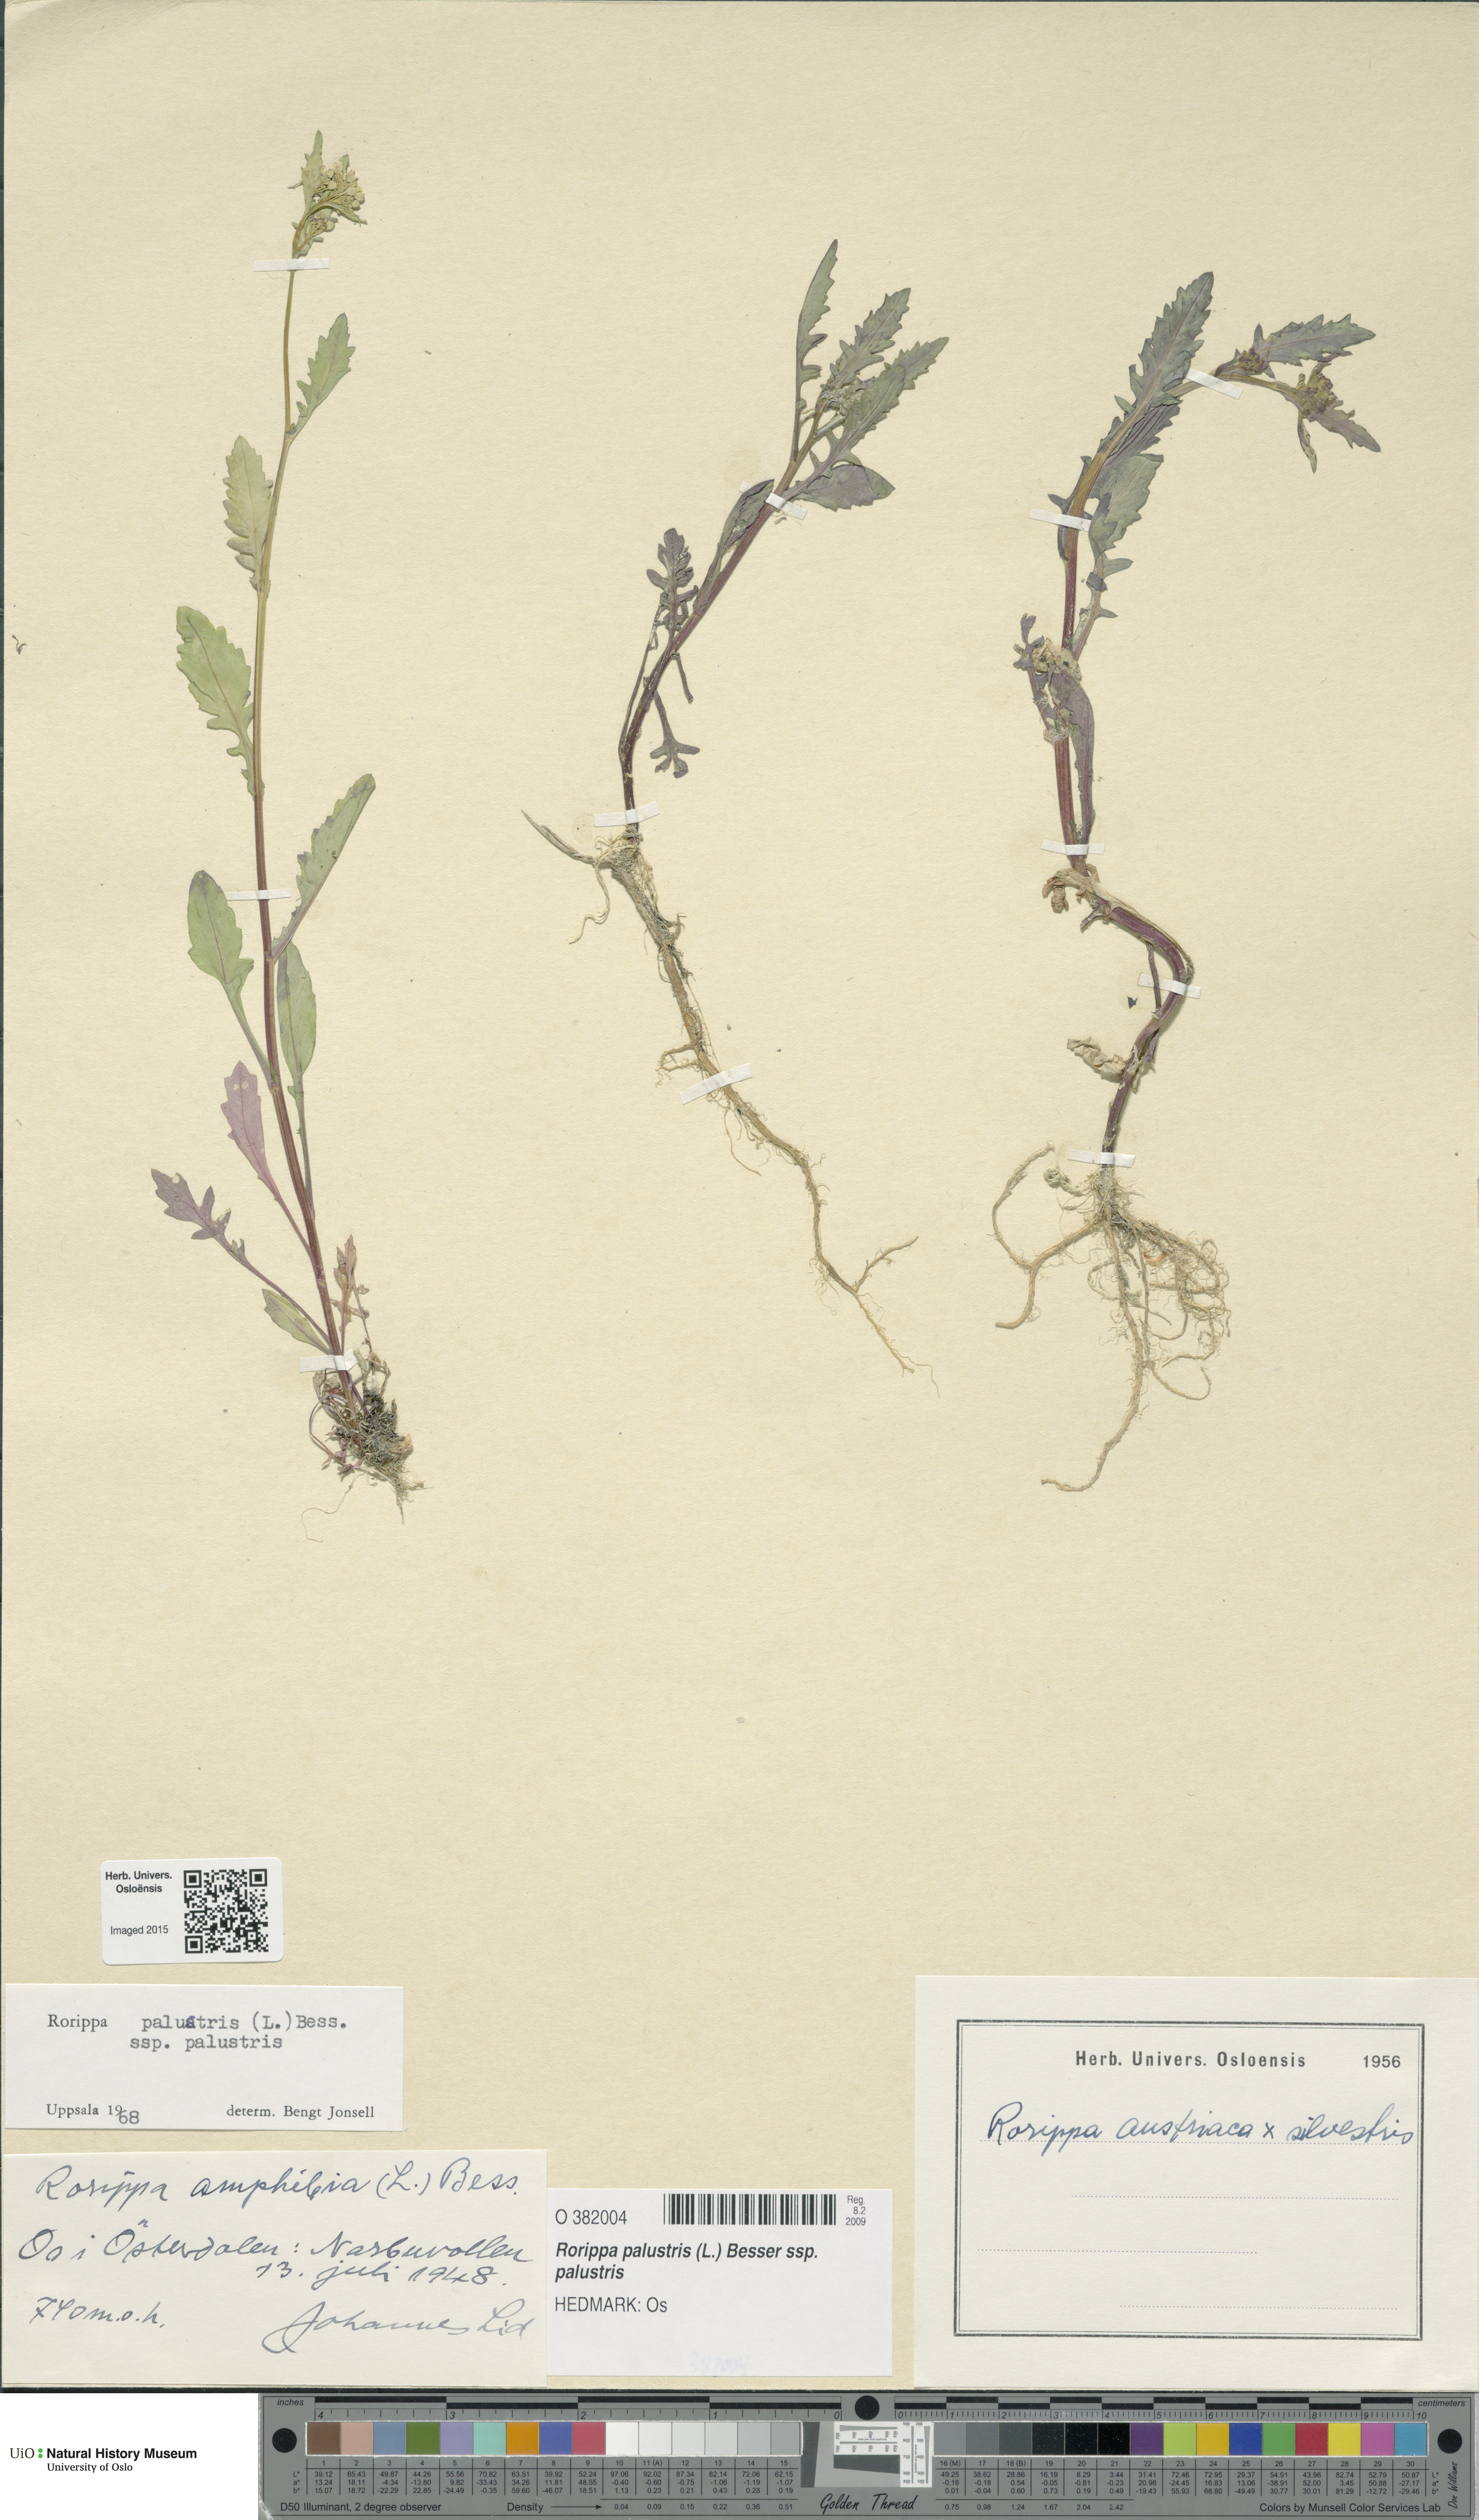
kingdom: Plantae
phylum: Tracheophyta
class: Magnoliopsida
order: Brassicales
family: Brassicaceae
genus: Rorippa
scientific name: Rorippa palustris
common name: Marsh yellow-cress
